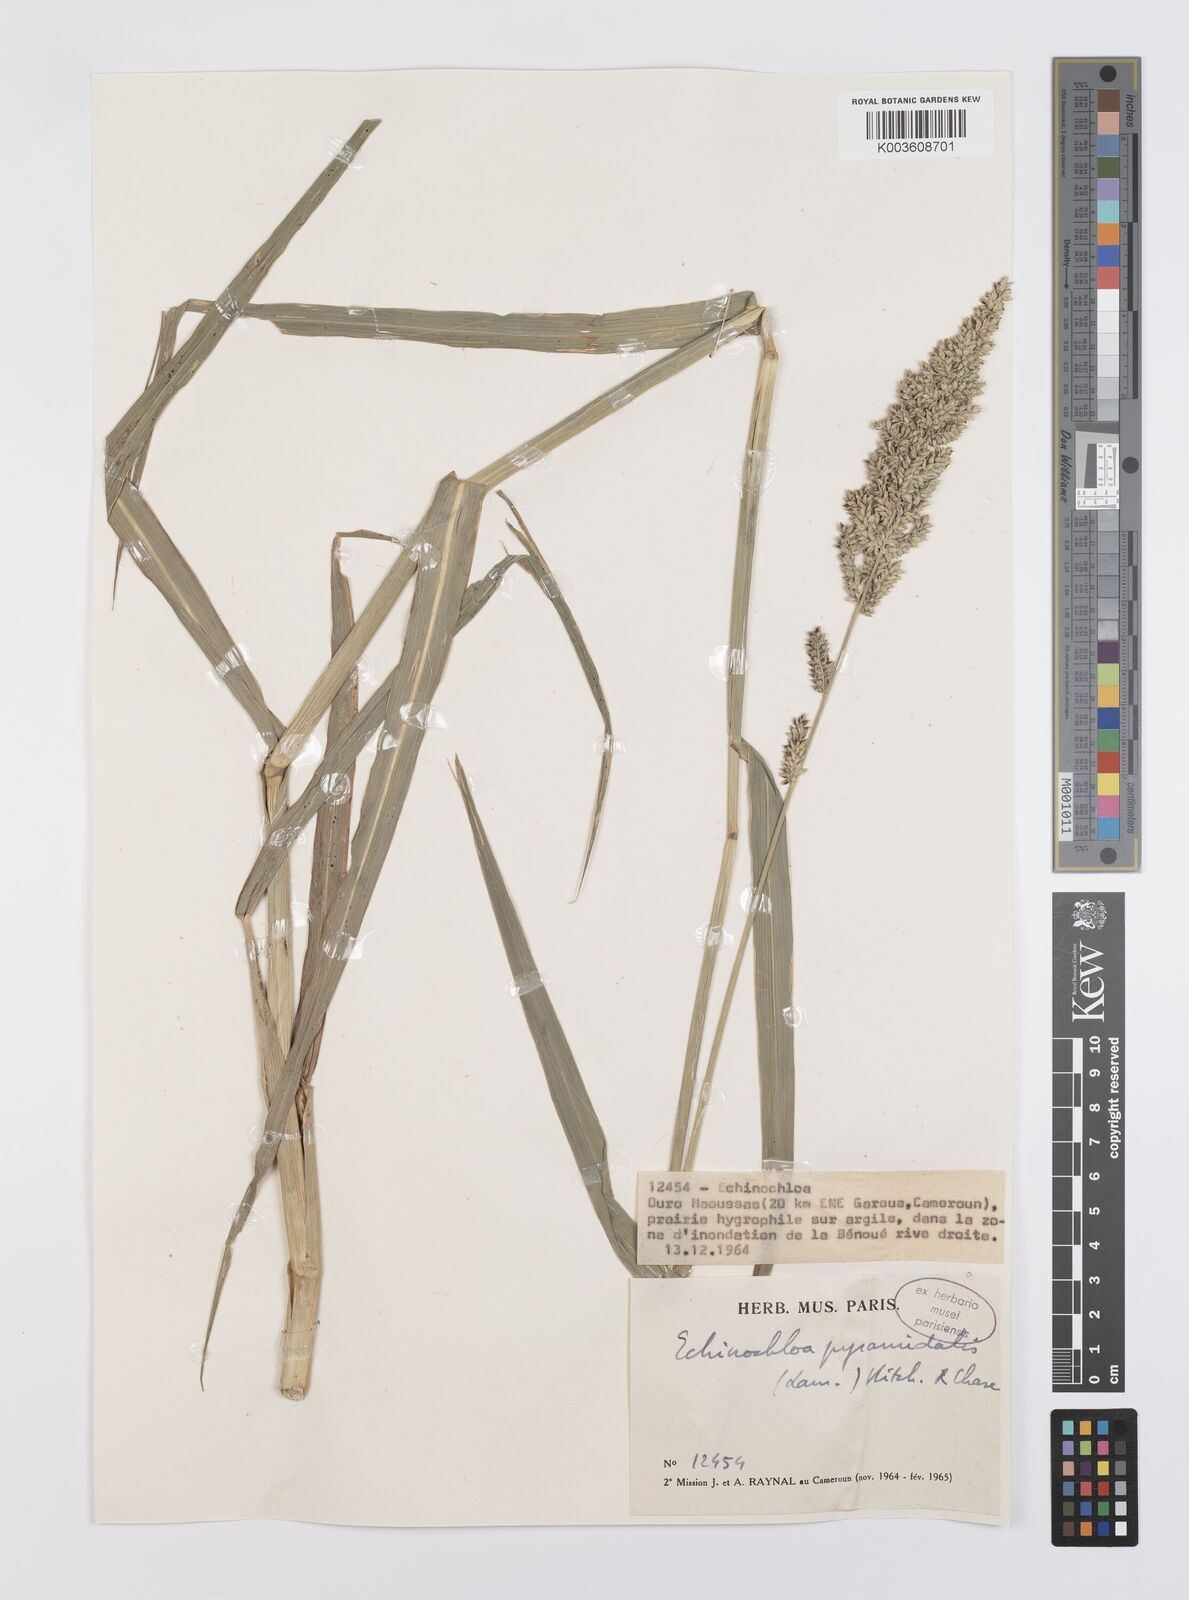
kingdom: Plantae
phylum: Tracheophyta
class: Liliopsida
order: Poales
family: Poaceae
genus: Echinochloa
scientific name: Echinochloa pyramidalis
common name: Antelope grass
